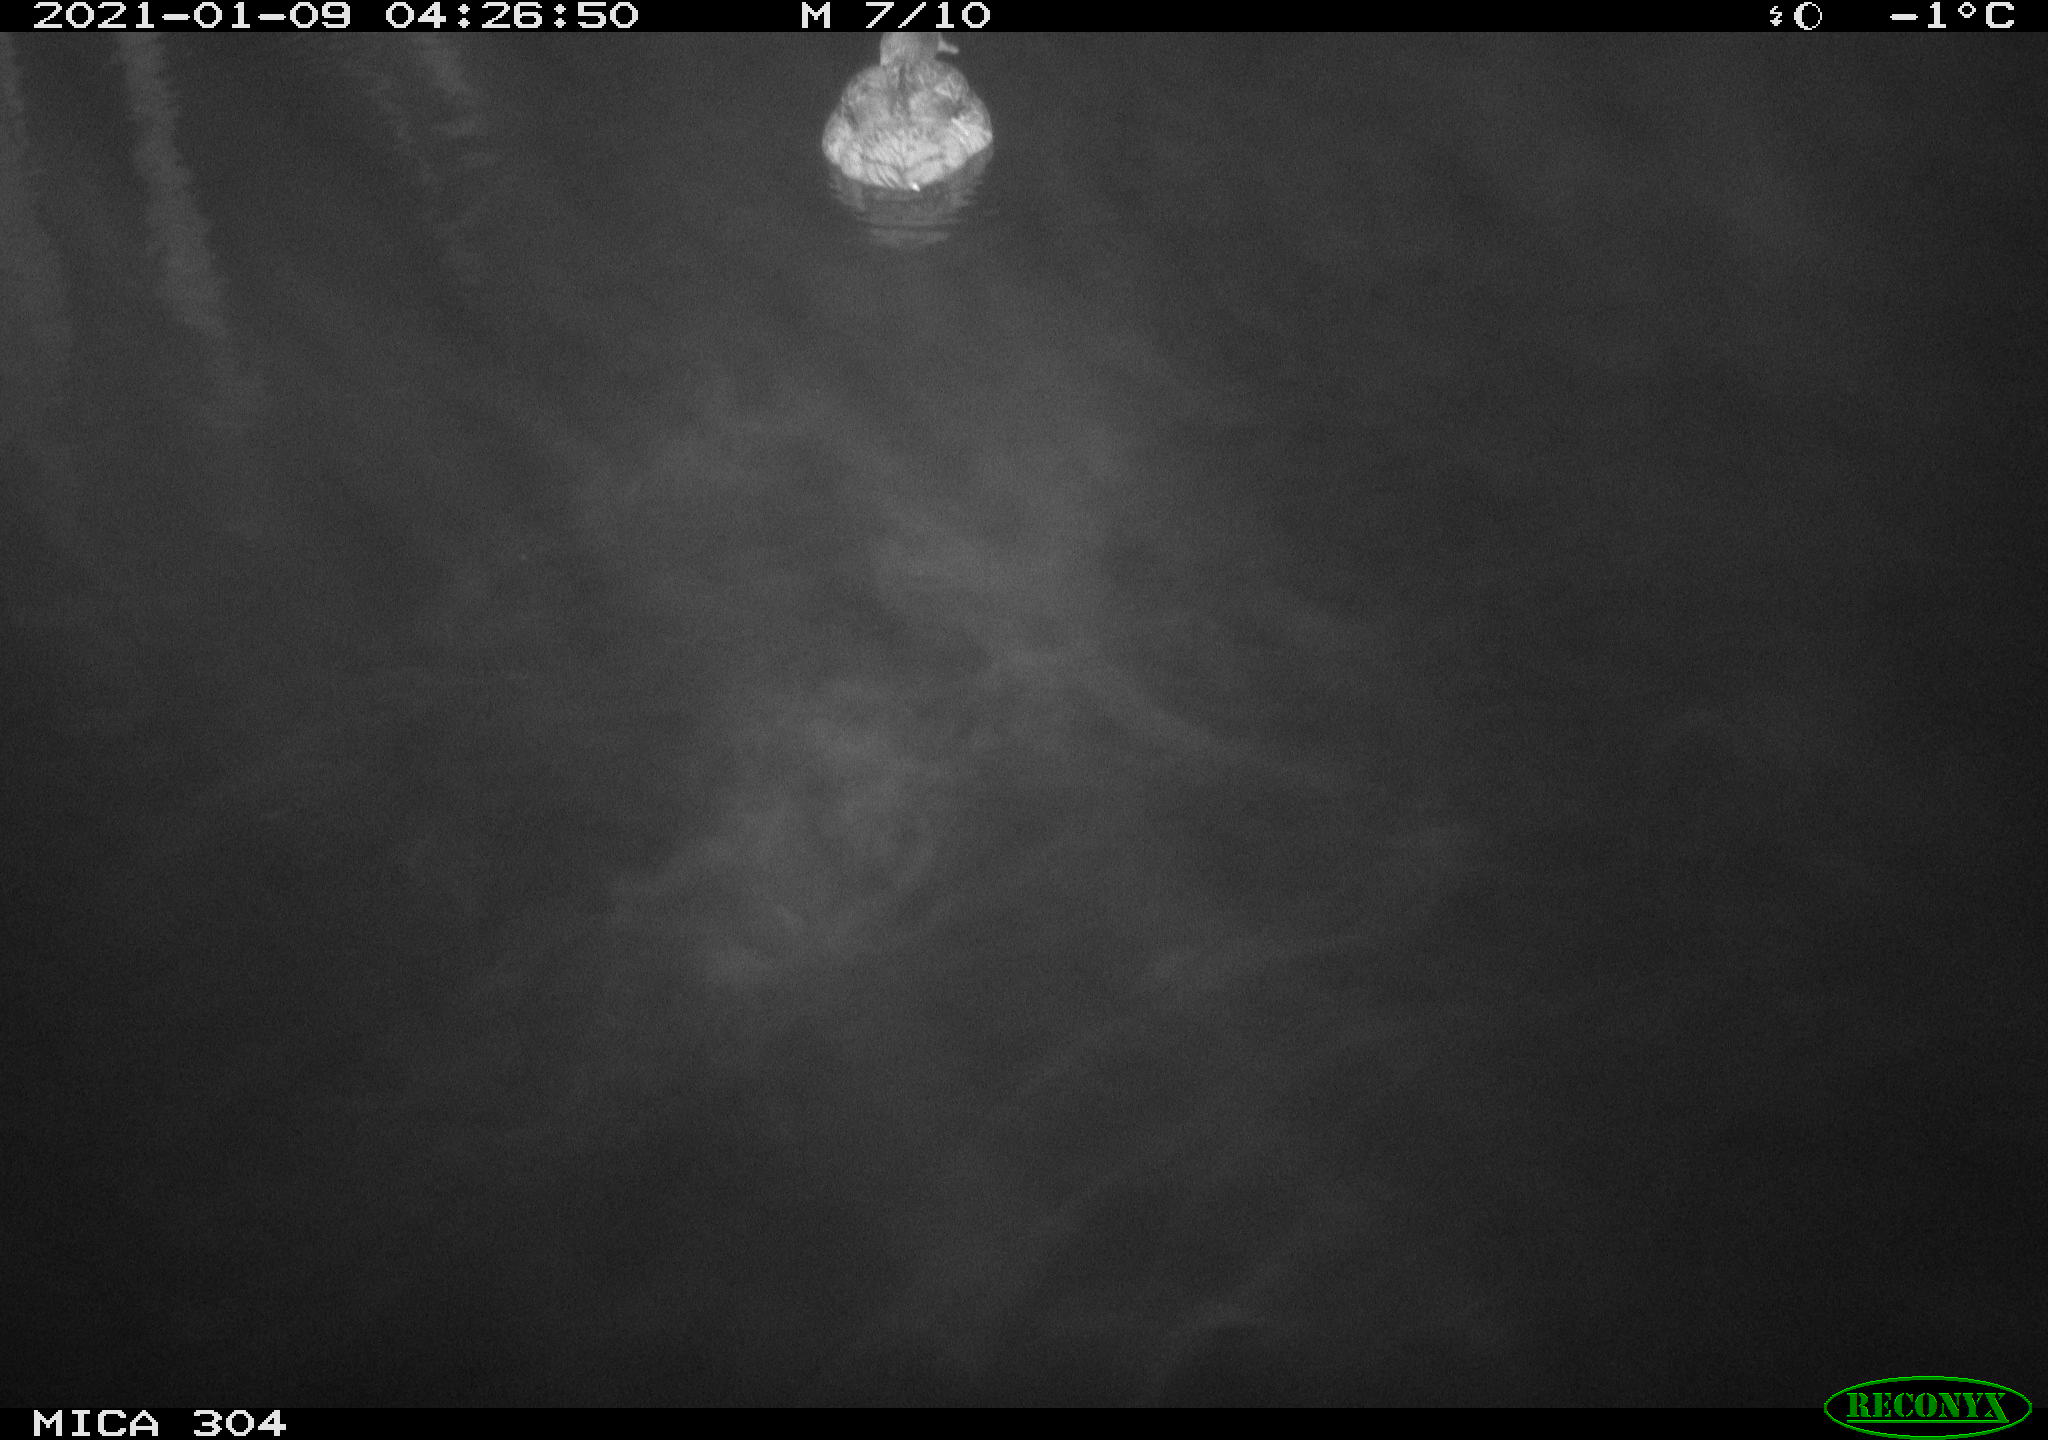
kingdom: Animalia
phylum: Chordata
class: Aves
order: Anseriformes
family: Anatidae
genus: Anas
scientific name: Anas platyrhynchos
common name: Mallard
